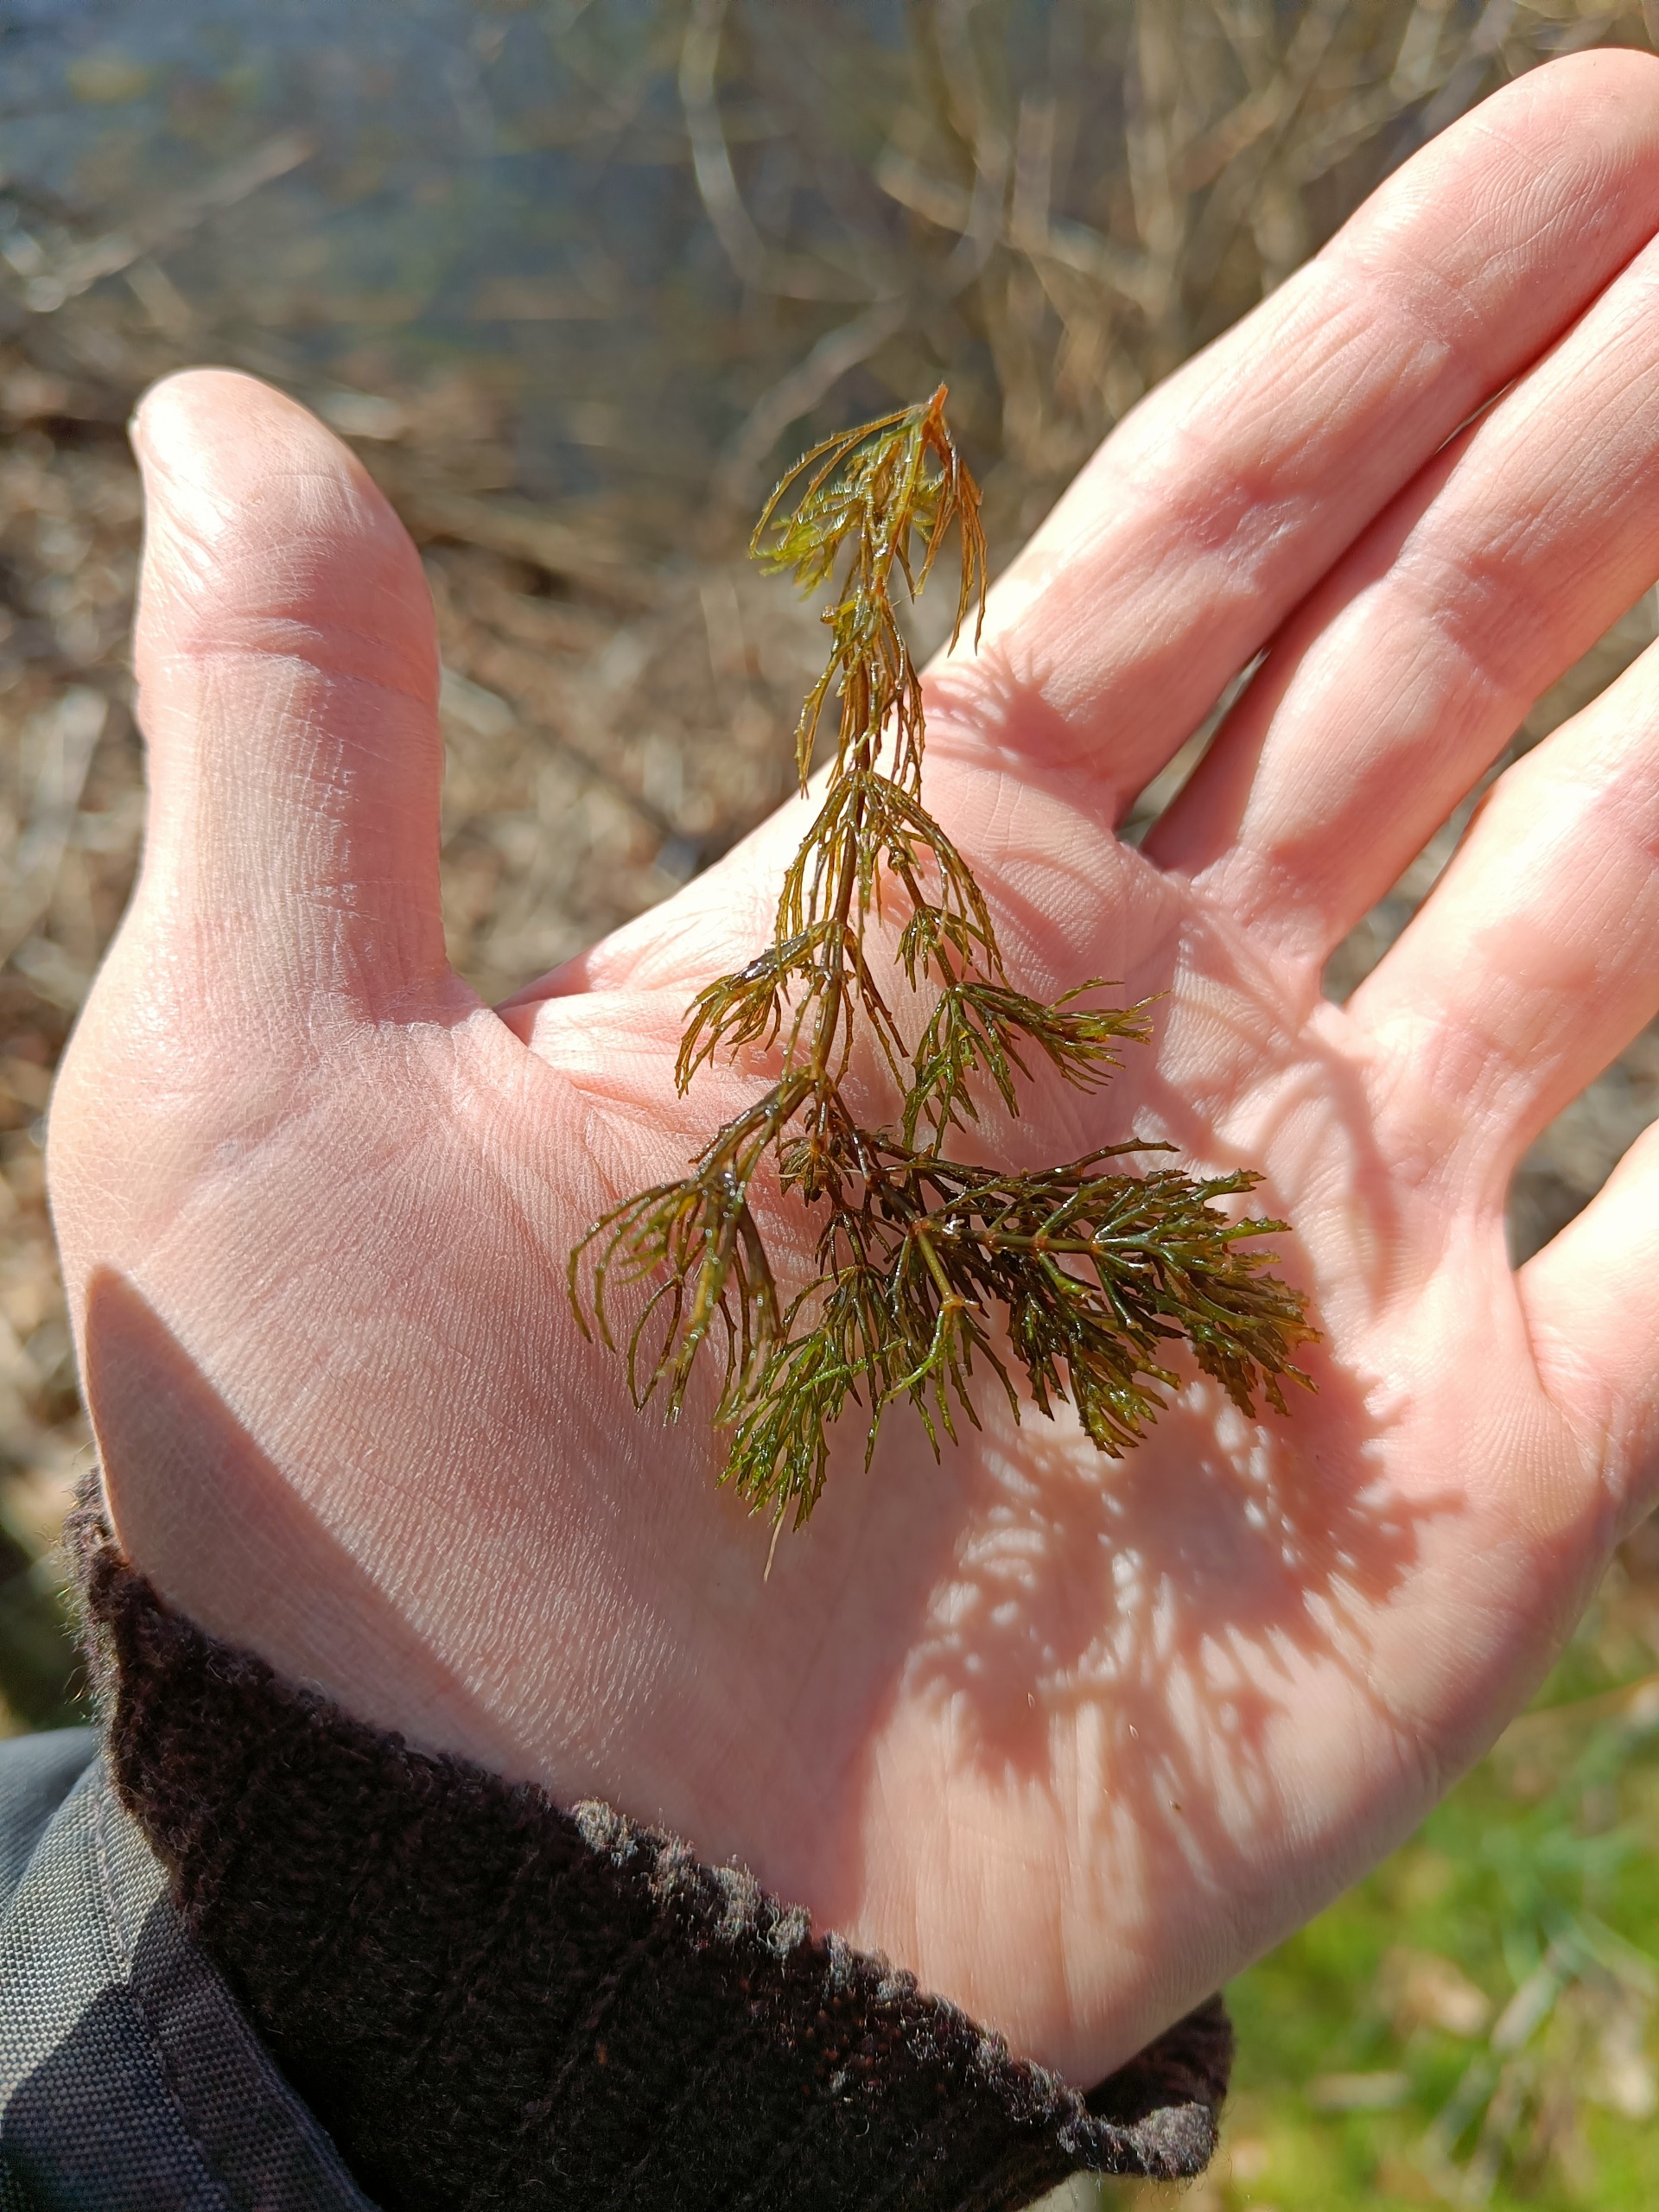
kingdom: Plantae
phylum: Tracheophyta
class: Magnoliopsida
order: Ceratophyllales
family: Ceratophyllaceae
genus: Ceratophyllum
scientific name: Ceratophyllum demersum
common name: Tornfrøet hornblad
